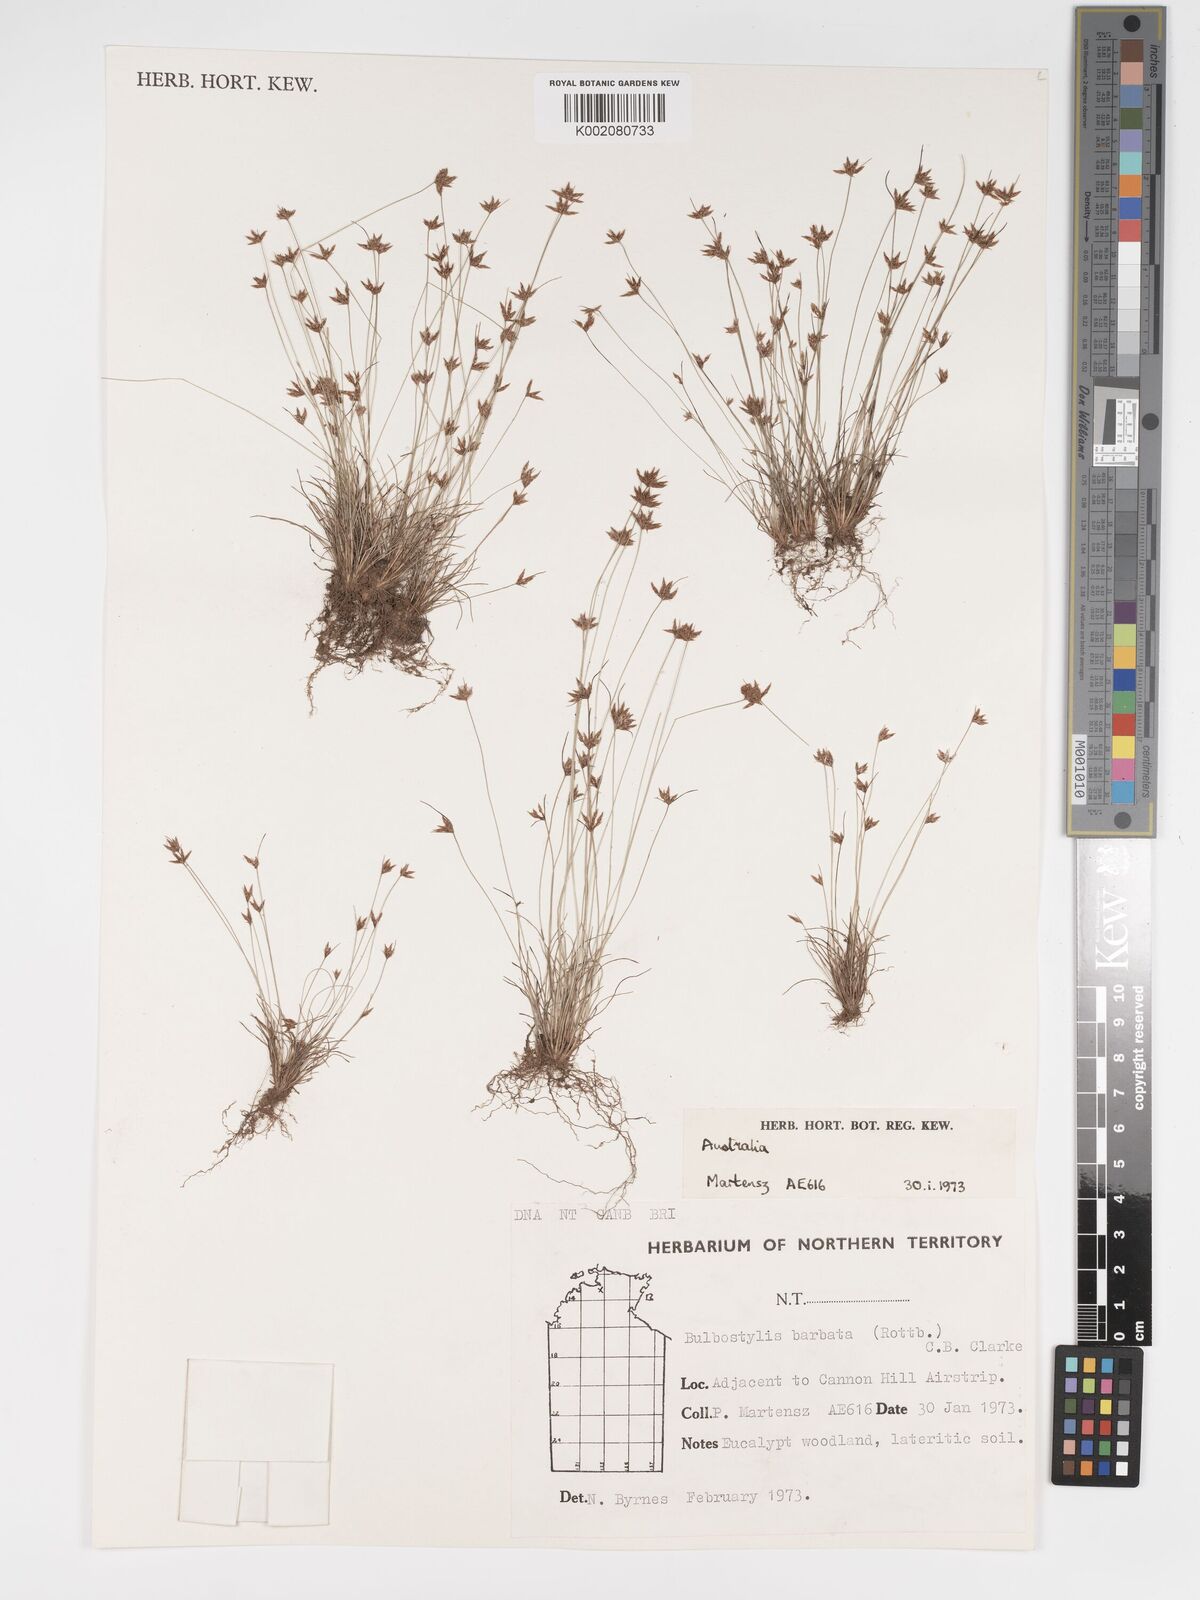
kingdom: Plantae
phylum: Tracheophyta
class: Liliopsida
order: Poales
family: Cyperaceae
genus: Bulbostylis
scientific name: Bulbostylis barbata
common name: Watergrass
